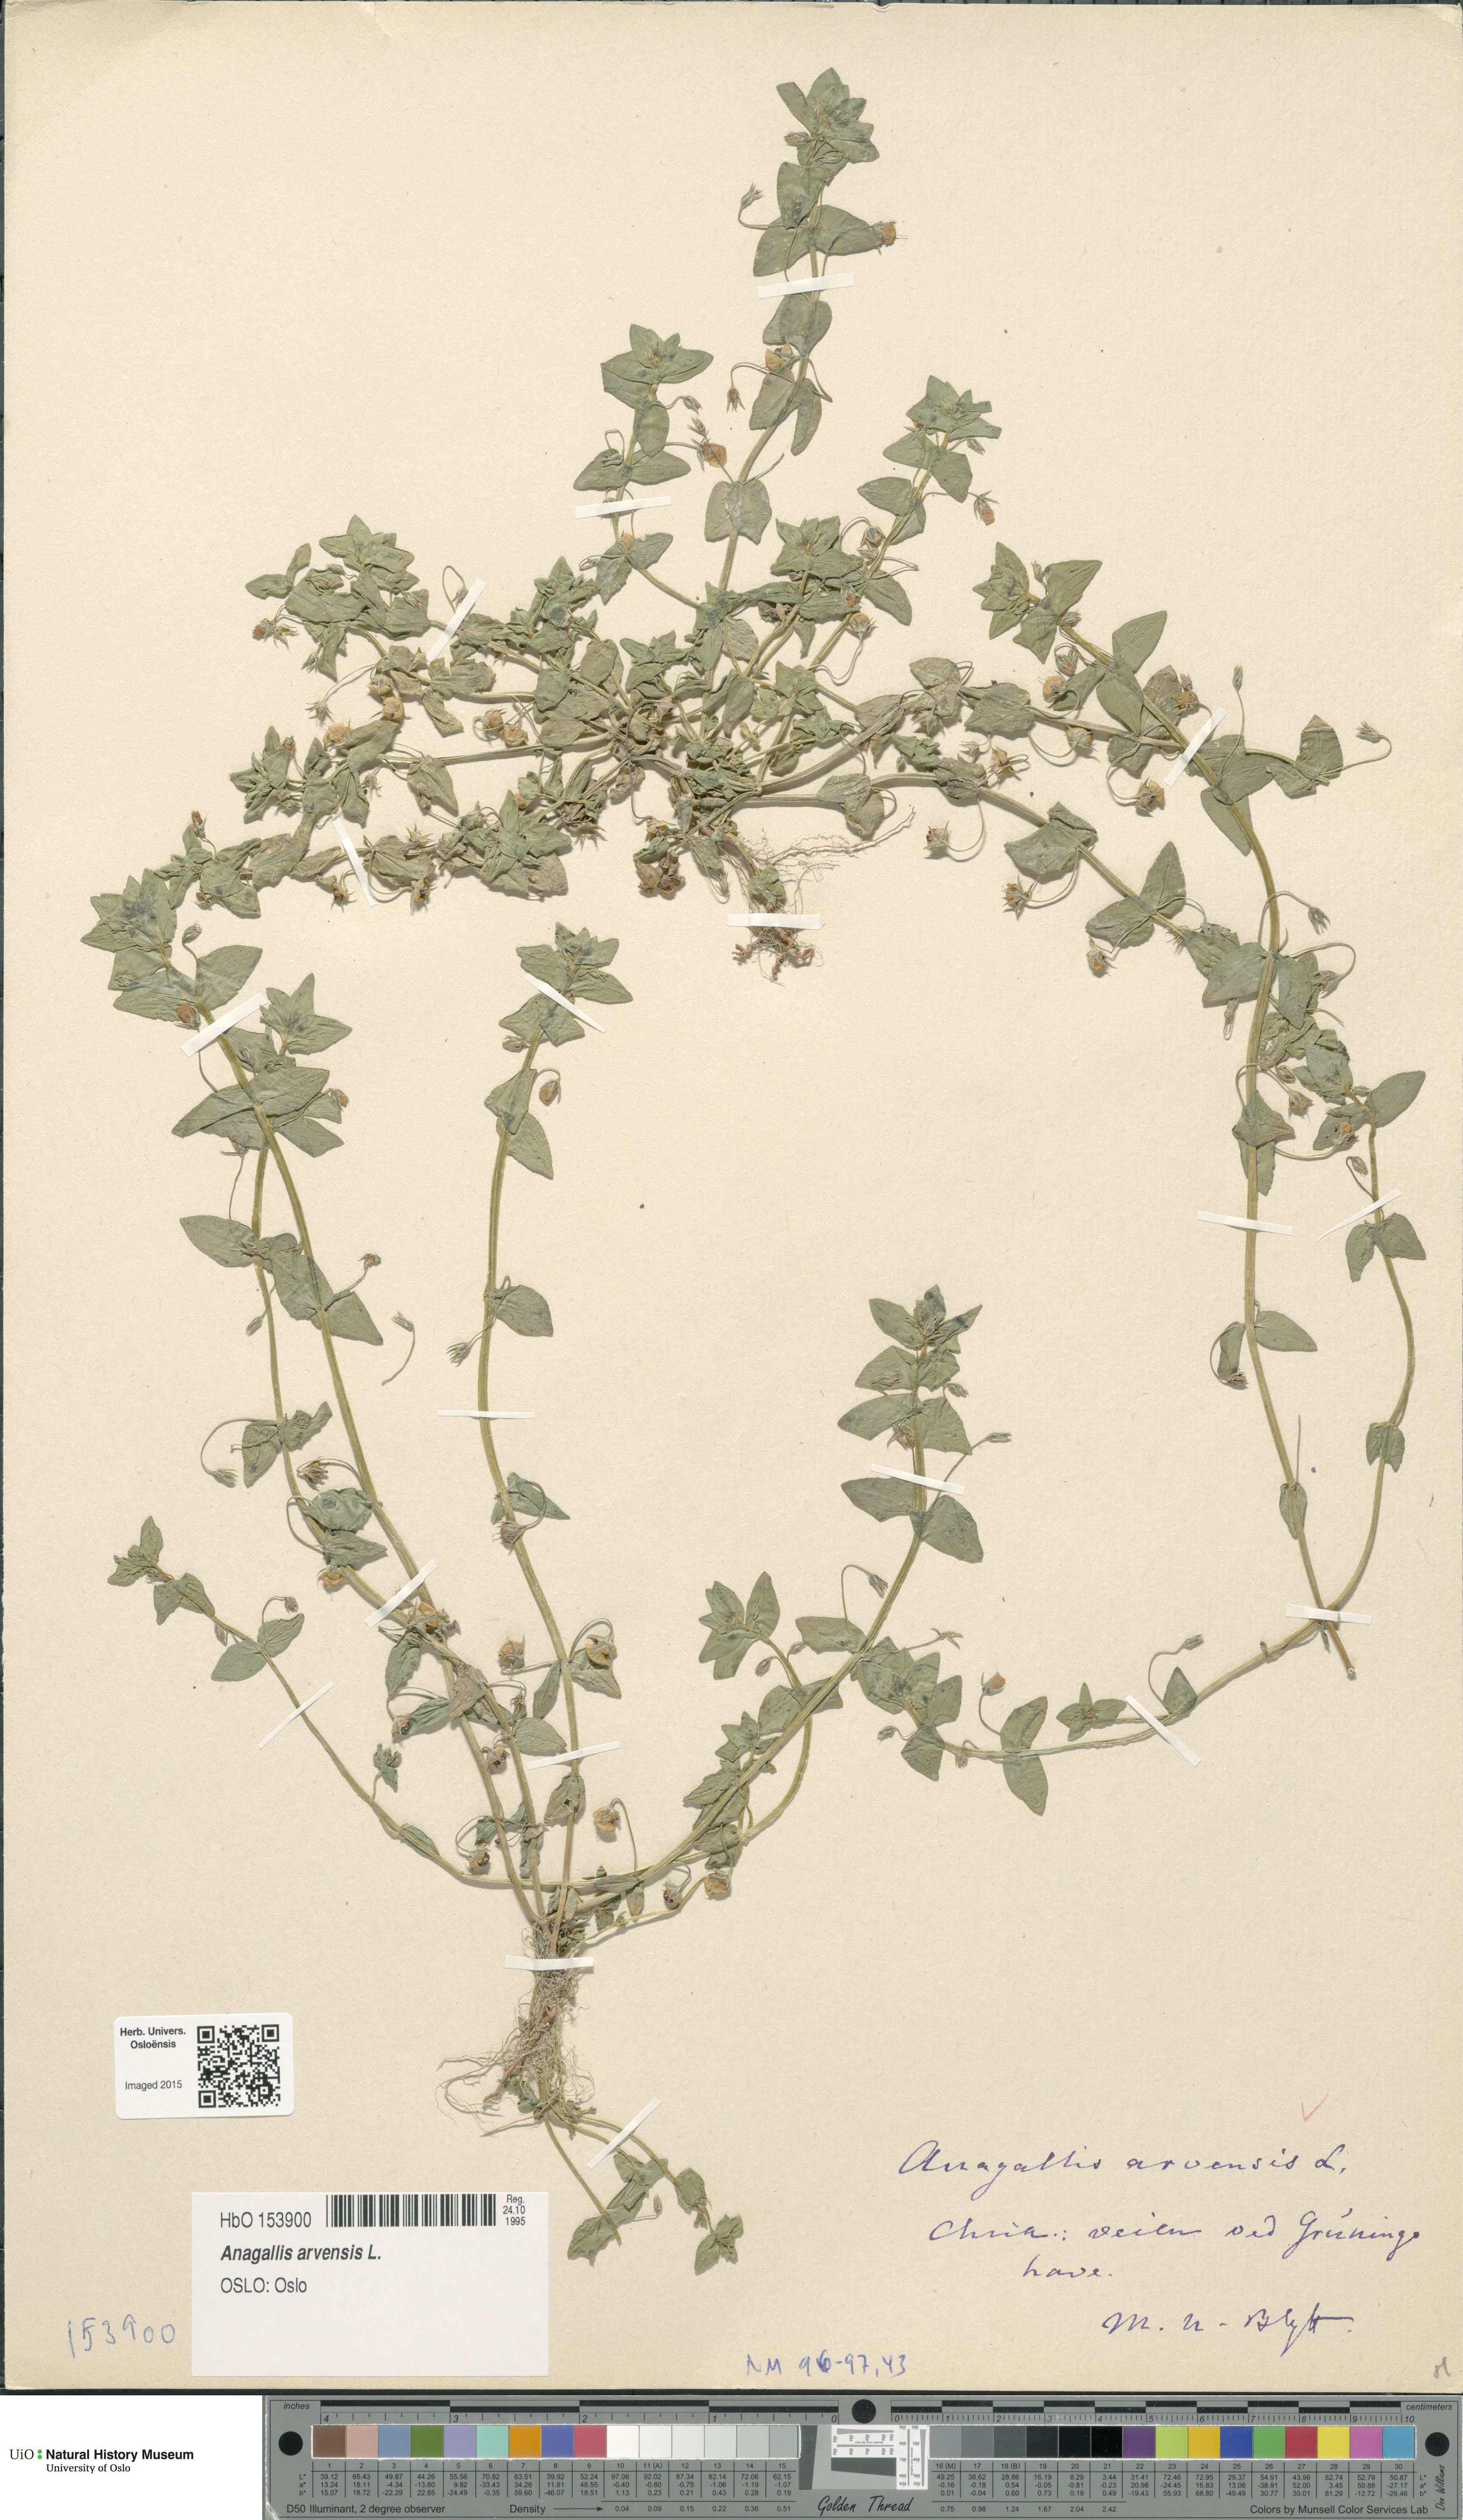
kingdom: Plantae
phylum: Tracheophyta
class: Magnoliopsida
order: Ericales
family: Primulaceae
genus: Lysimachia
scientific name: Lysimachia arvensis
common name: Scarlet pimpernel
